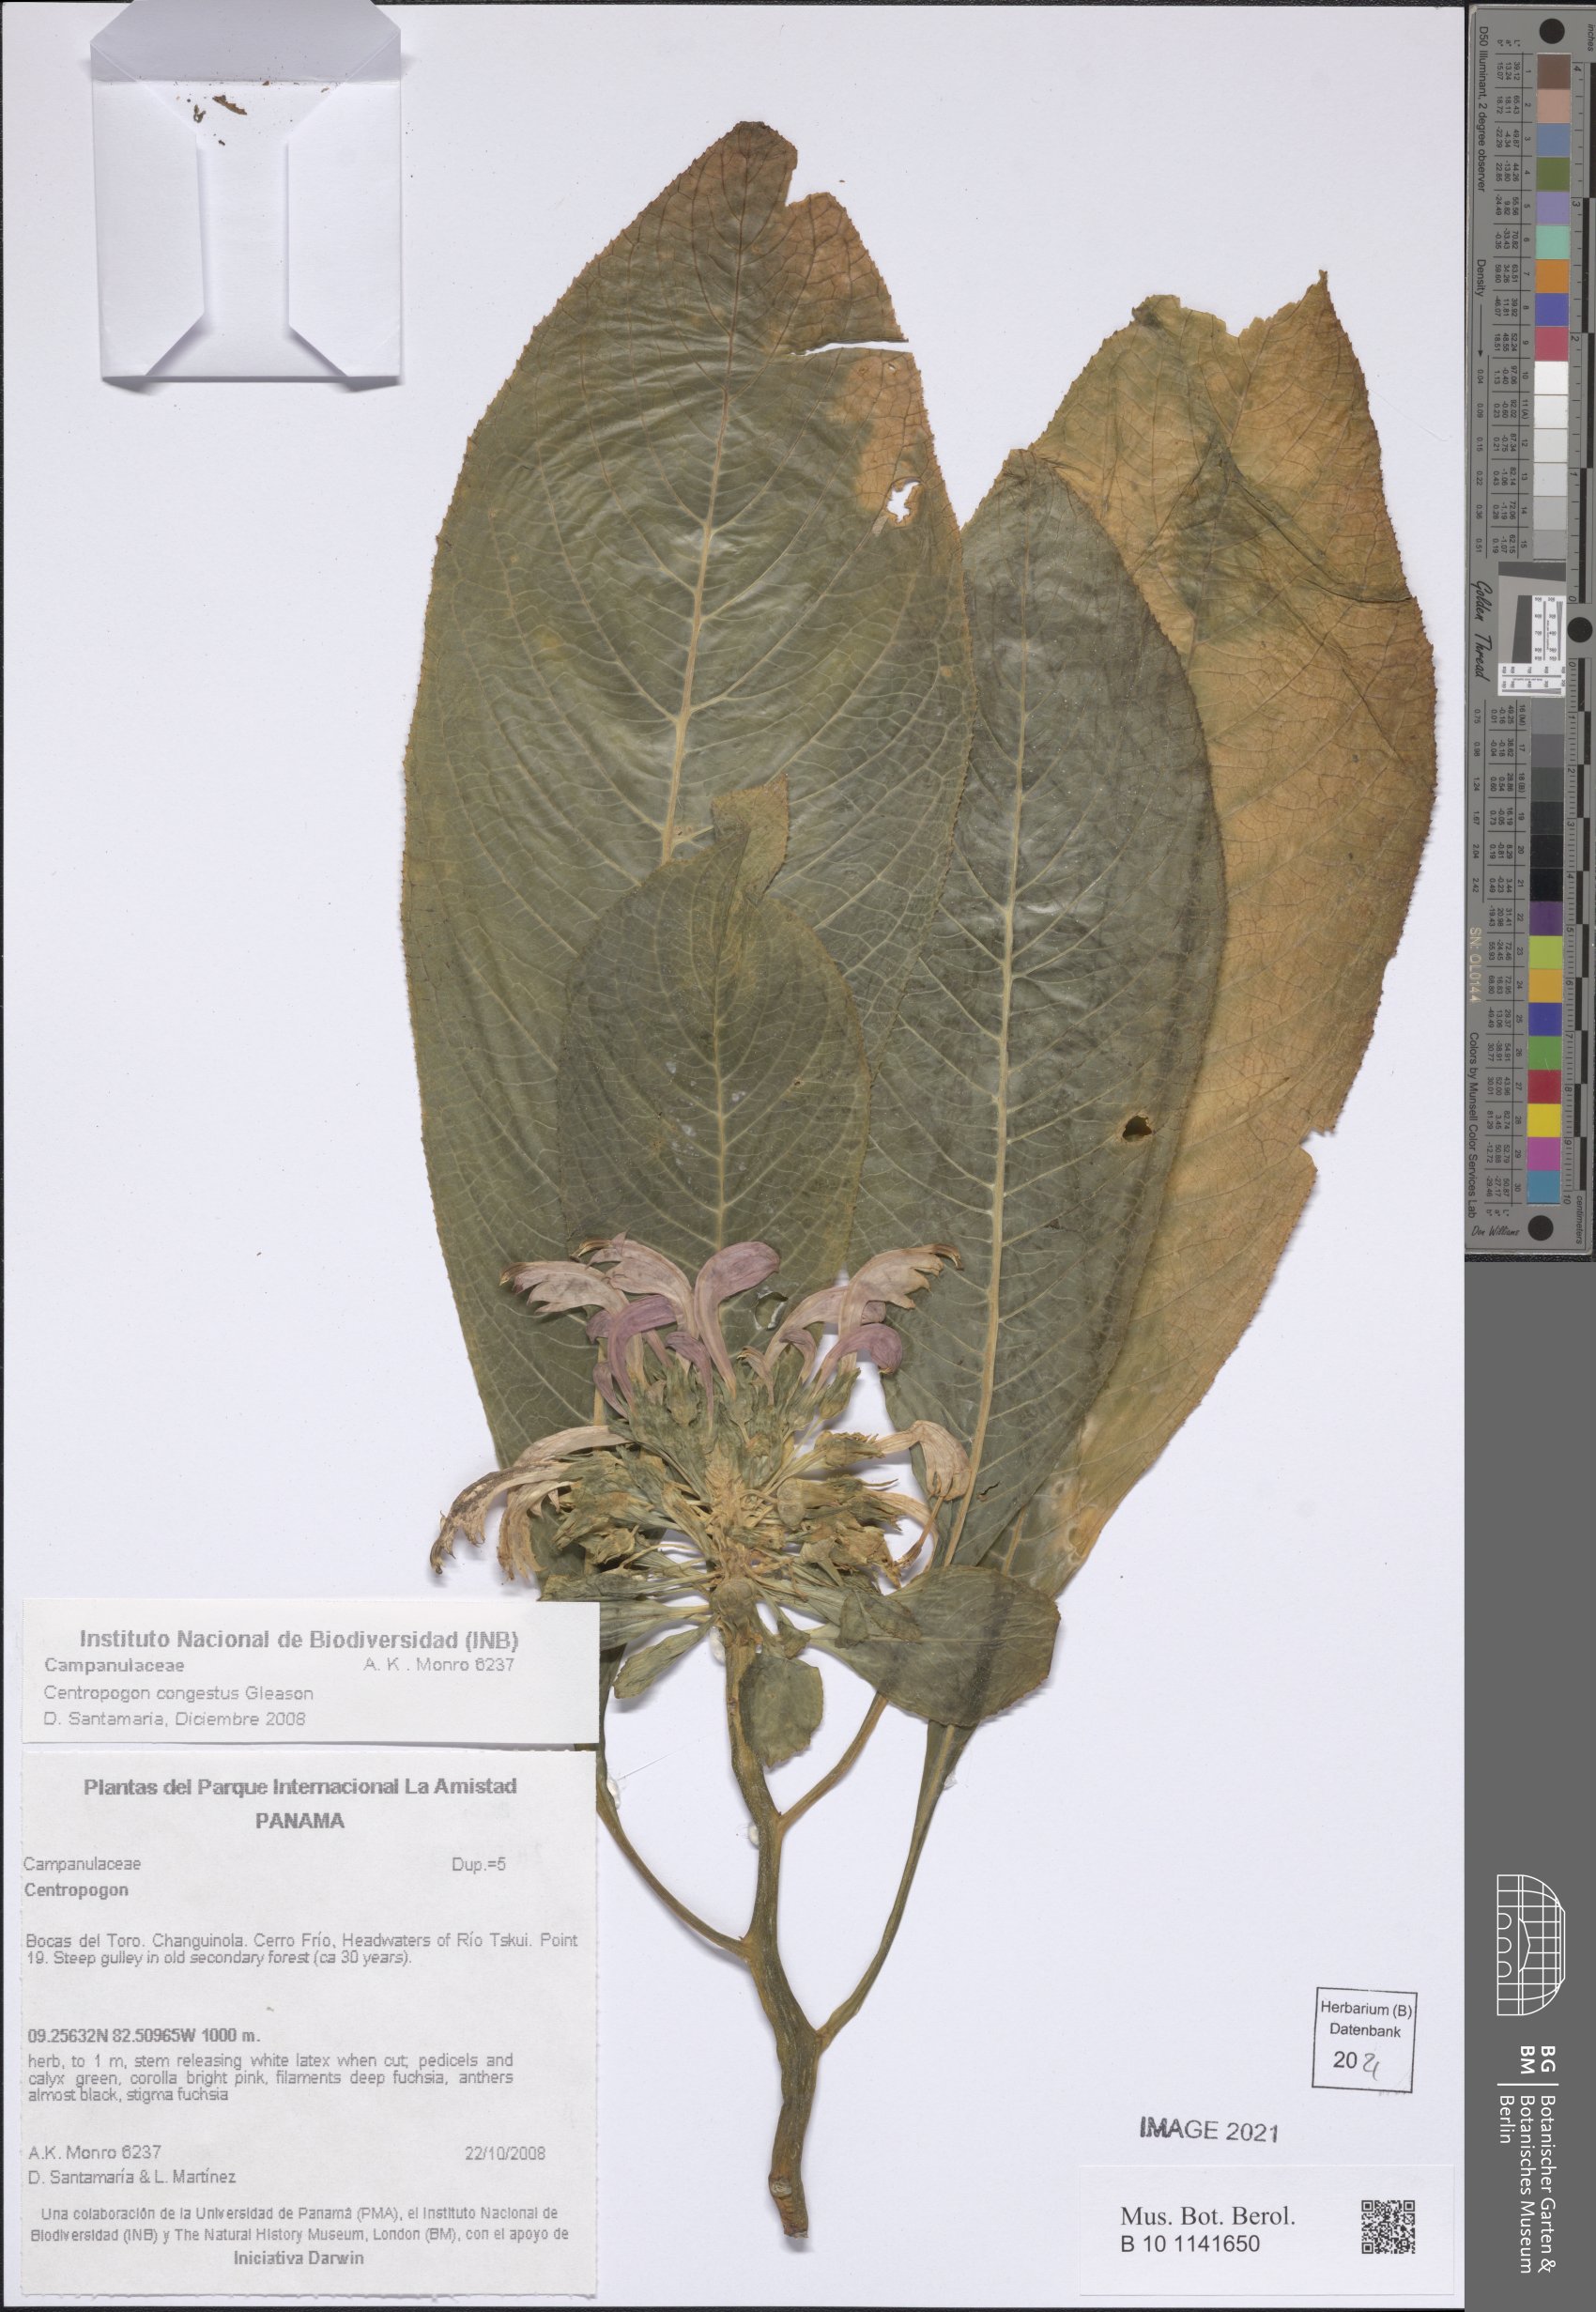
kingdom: Plantae
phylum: Tracheophyta
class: Magnoliopsida
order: Asterales
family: Campanulaceae
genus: Centropogon
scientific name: Centropogon congestus
